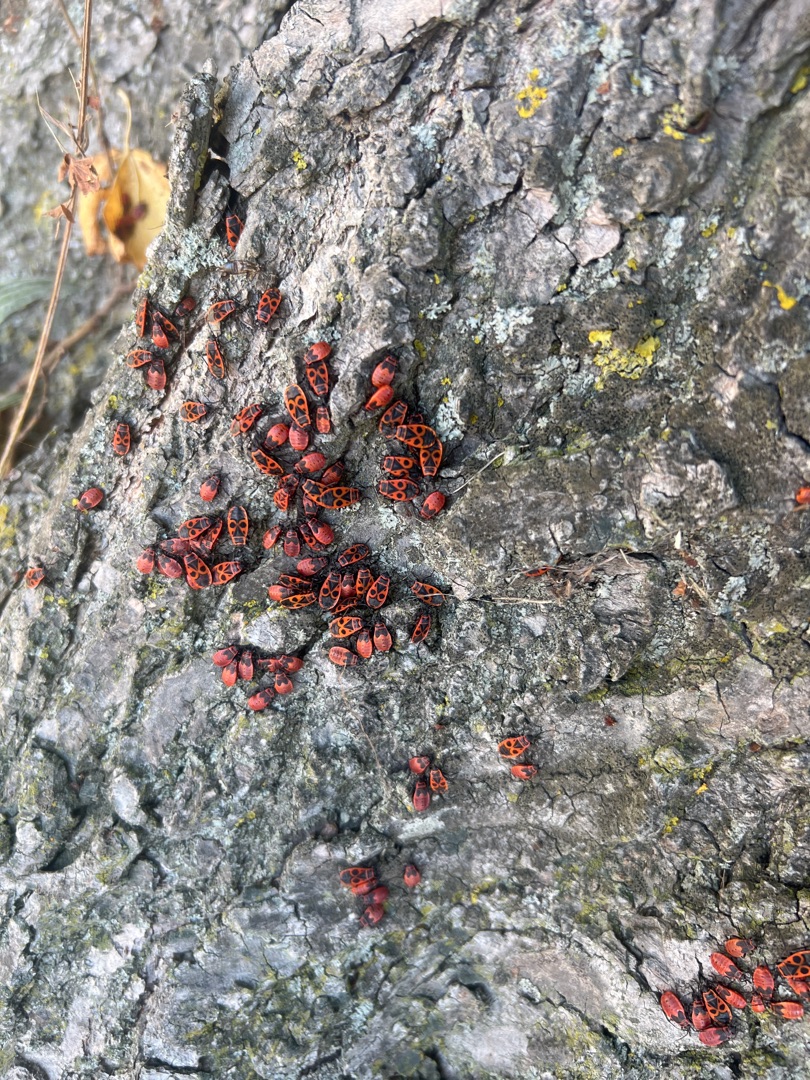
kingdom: Animalia
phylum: Arthropoda
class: Insecta
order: Hemiptera
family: Pyrrhocoridae
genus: Pyrrhocoris
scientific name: Pyrrhocoris apterus
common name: Ildtæge
